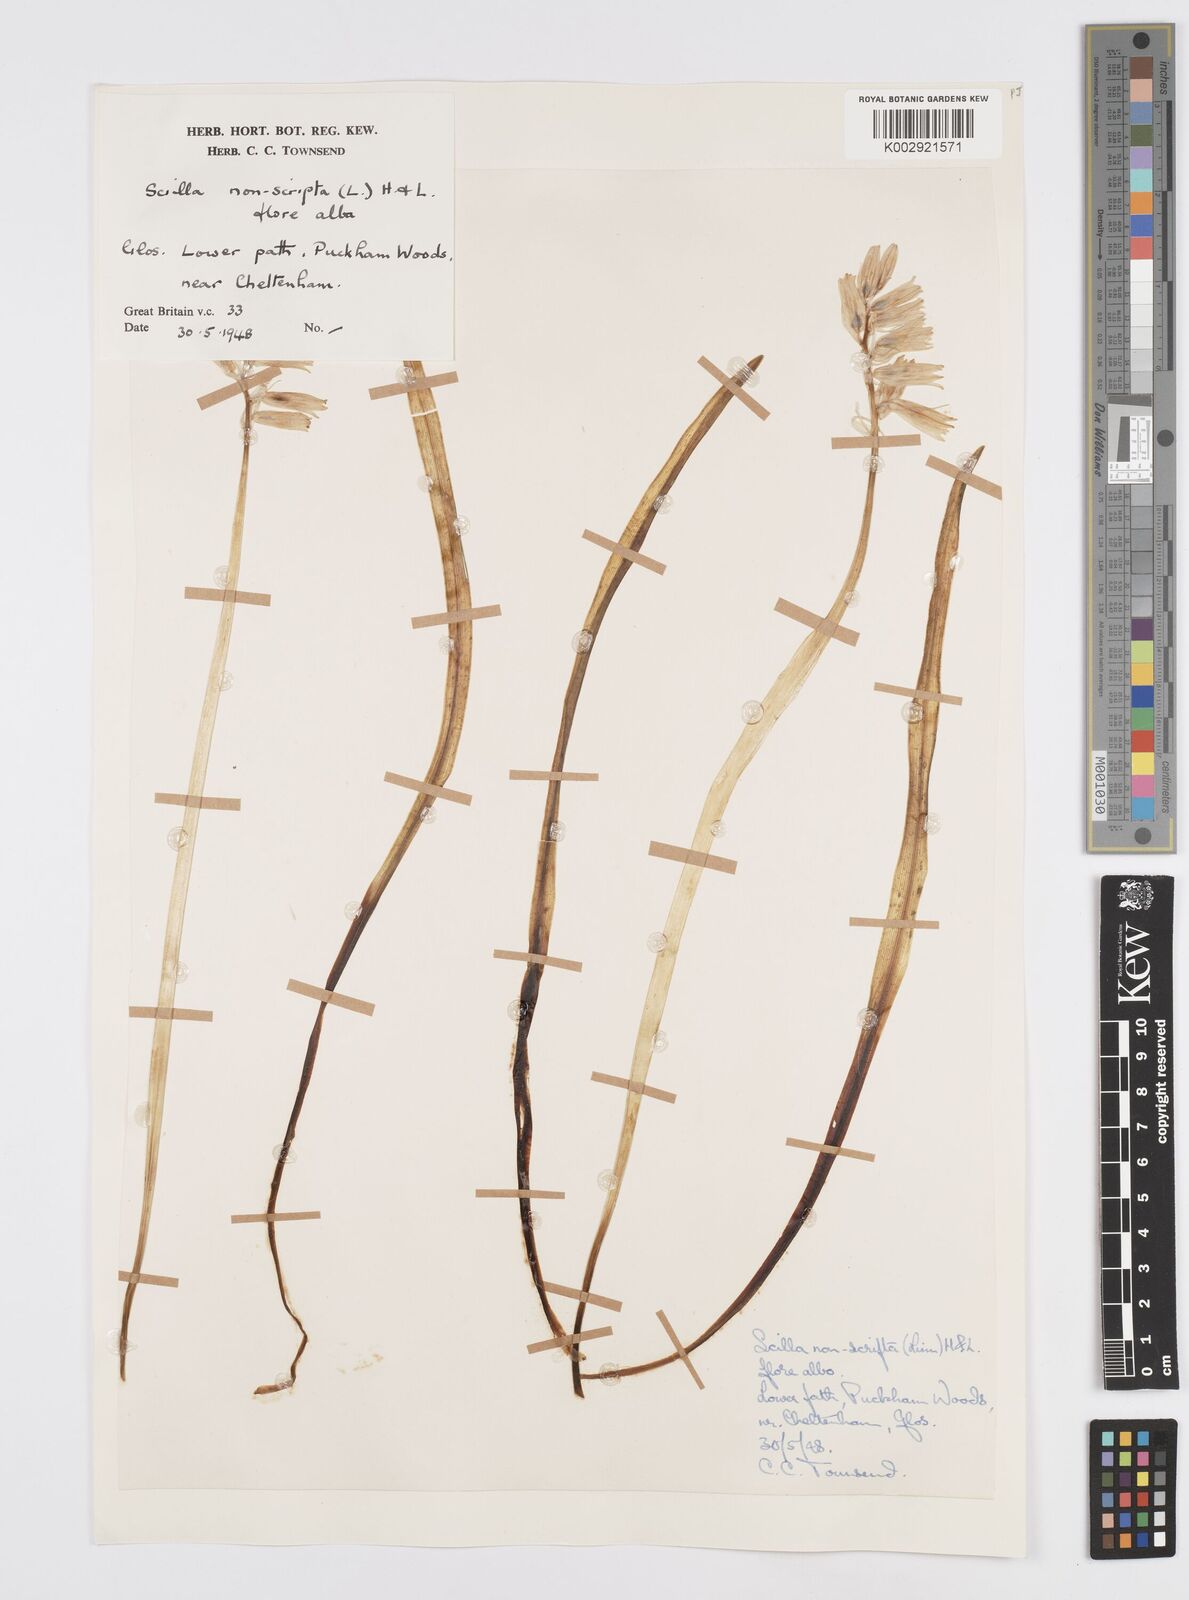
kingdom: Plantae
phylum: Tracheophyta
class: Liliopsida
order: Asparagales
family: Asparagaceae
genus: Hyacinthoides
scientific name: Hyacinthoides non-scripta
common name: Bluebell
